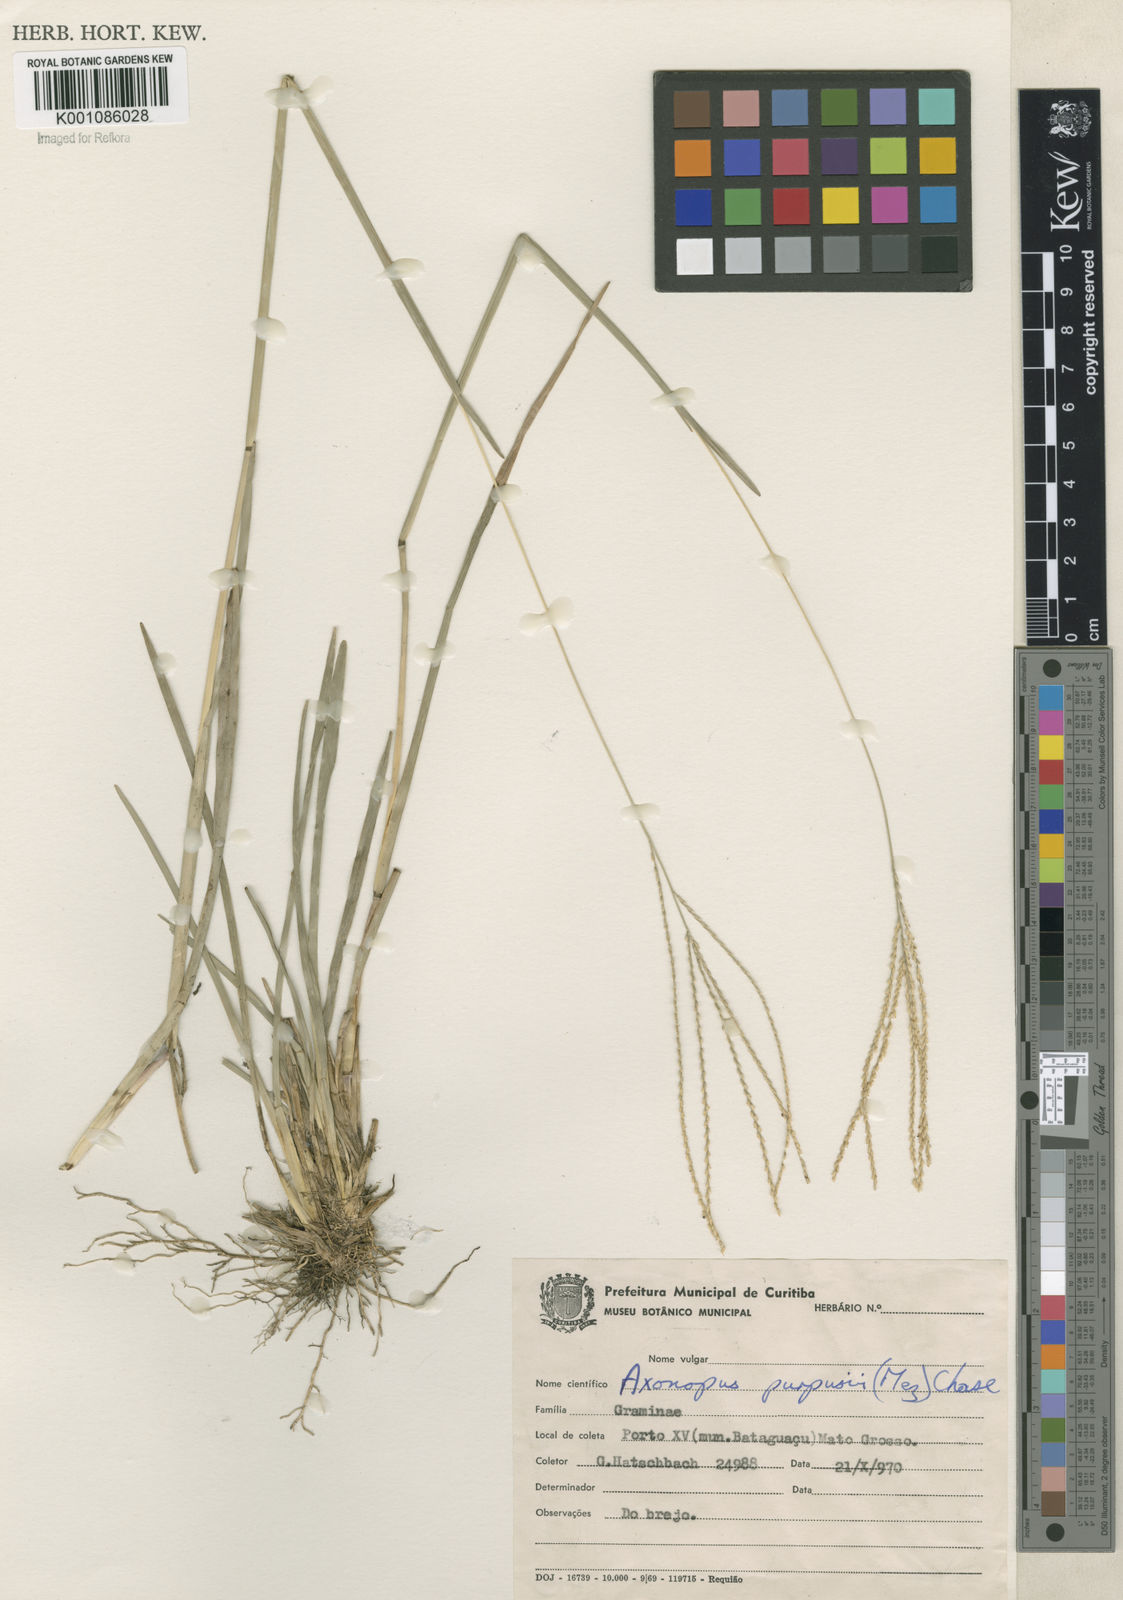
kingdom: Plantae
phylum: Tracheophyta
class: Liliopsida
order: Poales
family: Poaceae
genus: Axonopus
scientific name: Axonopus purpusii
